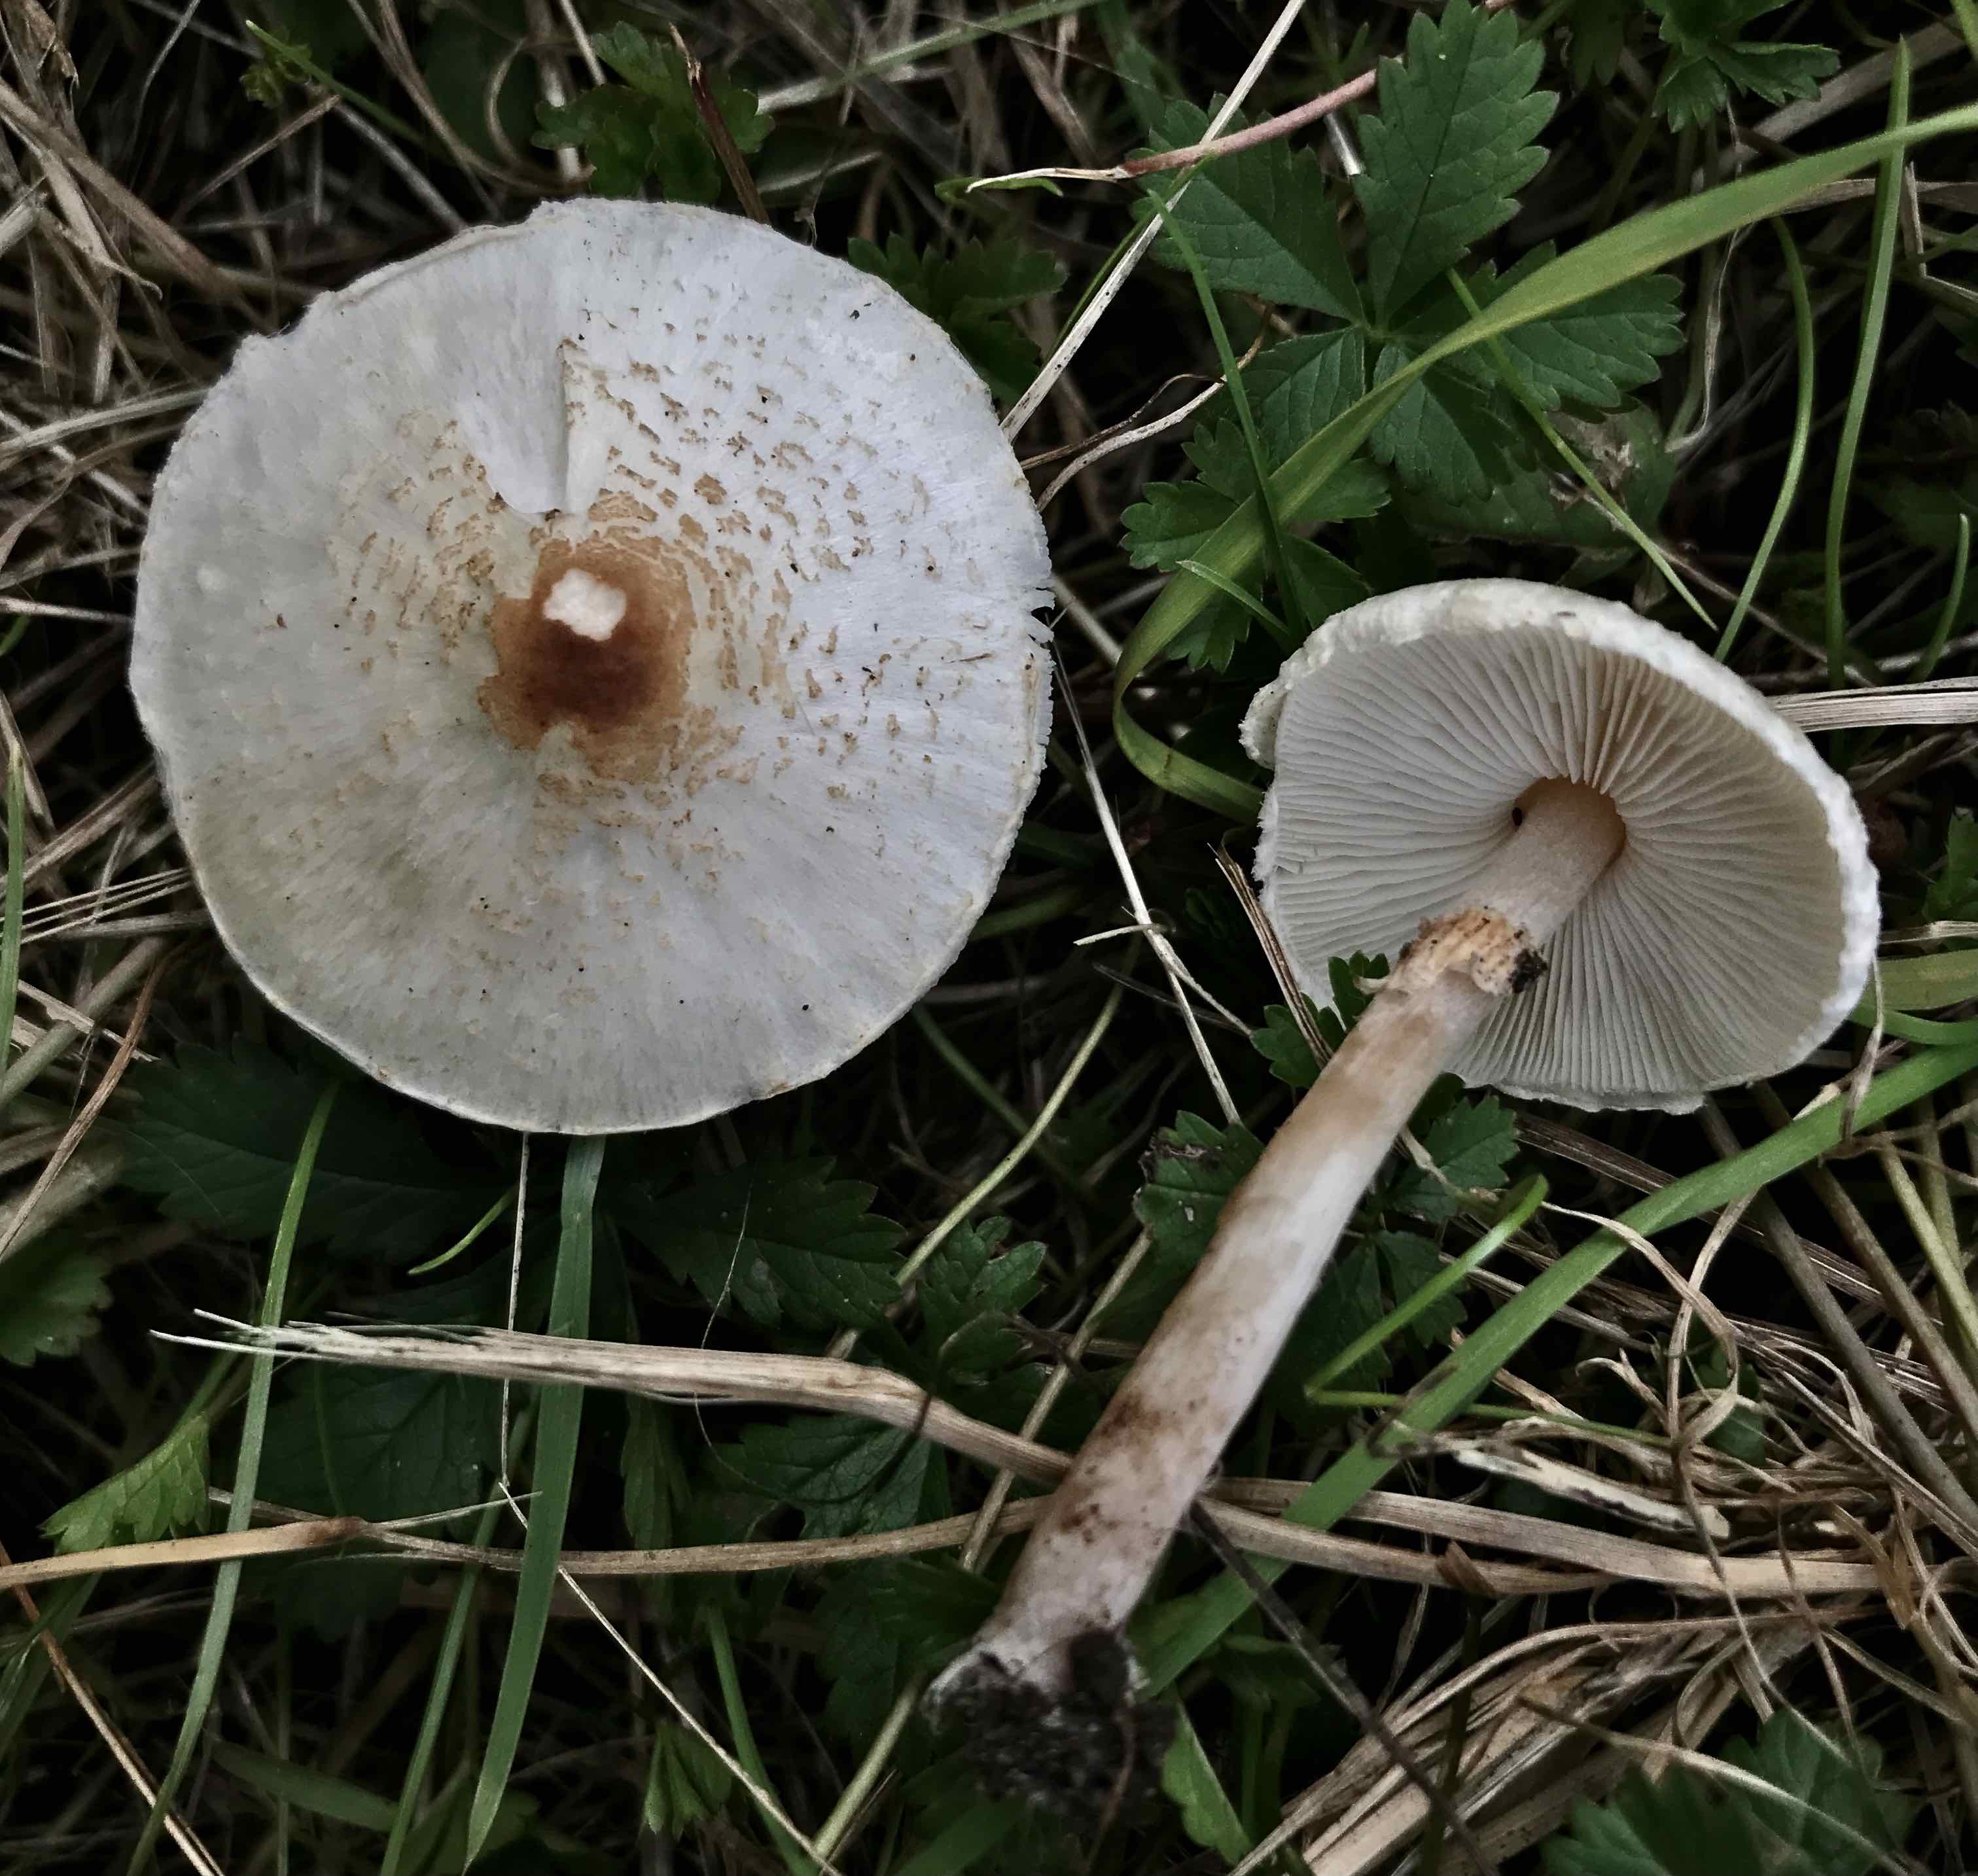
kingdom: Fungi
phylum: Basidiomycota
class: Agaricomycetes
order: Agaricales
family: Agaricaceae
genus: Lepiota
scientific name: Lepiota cristata
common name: stinkende parasolhat
